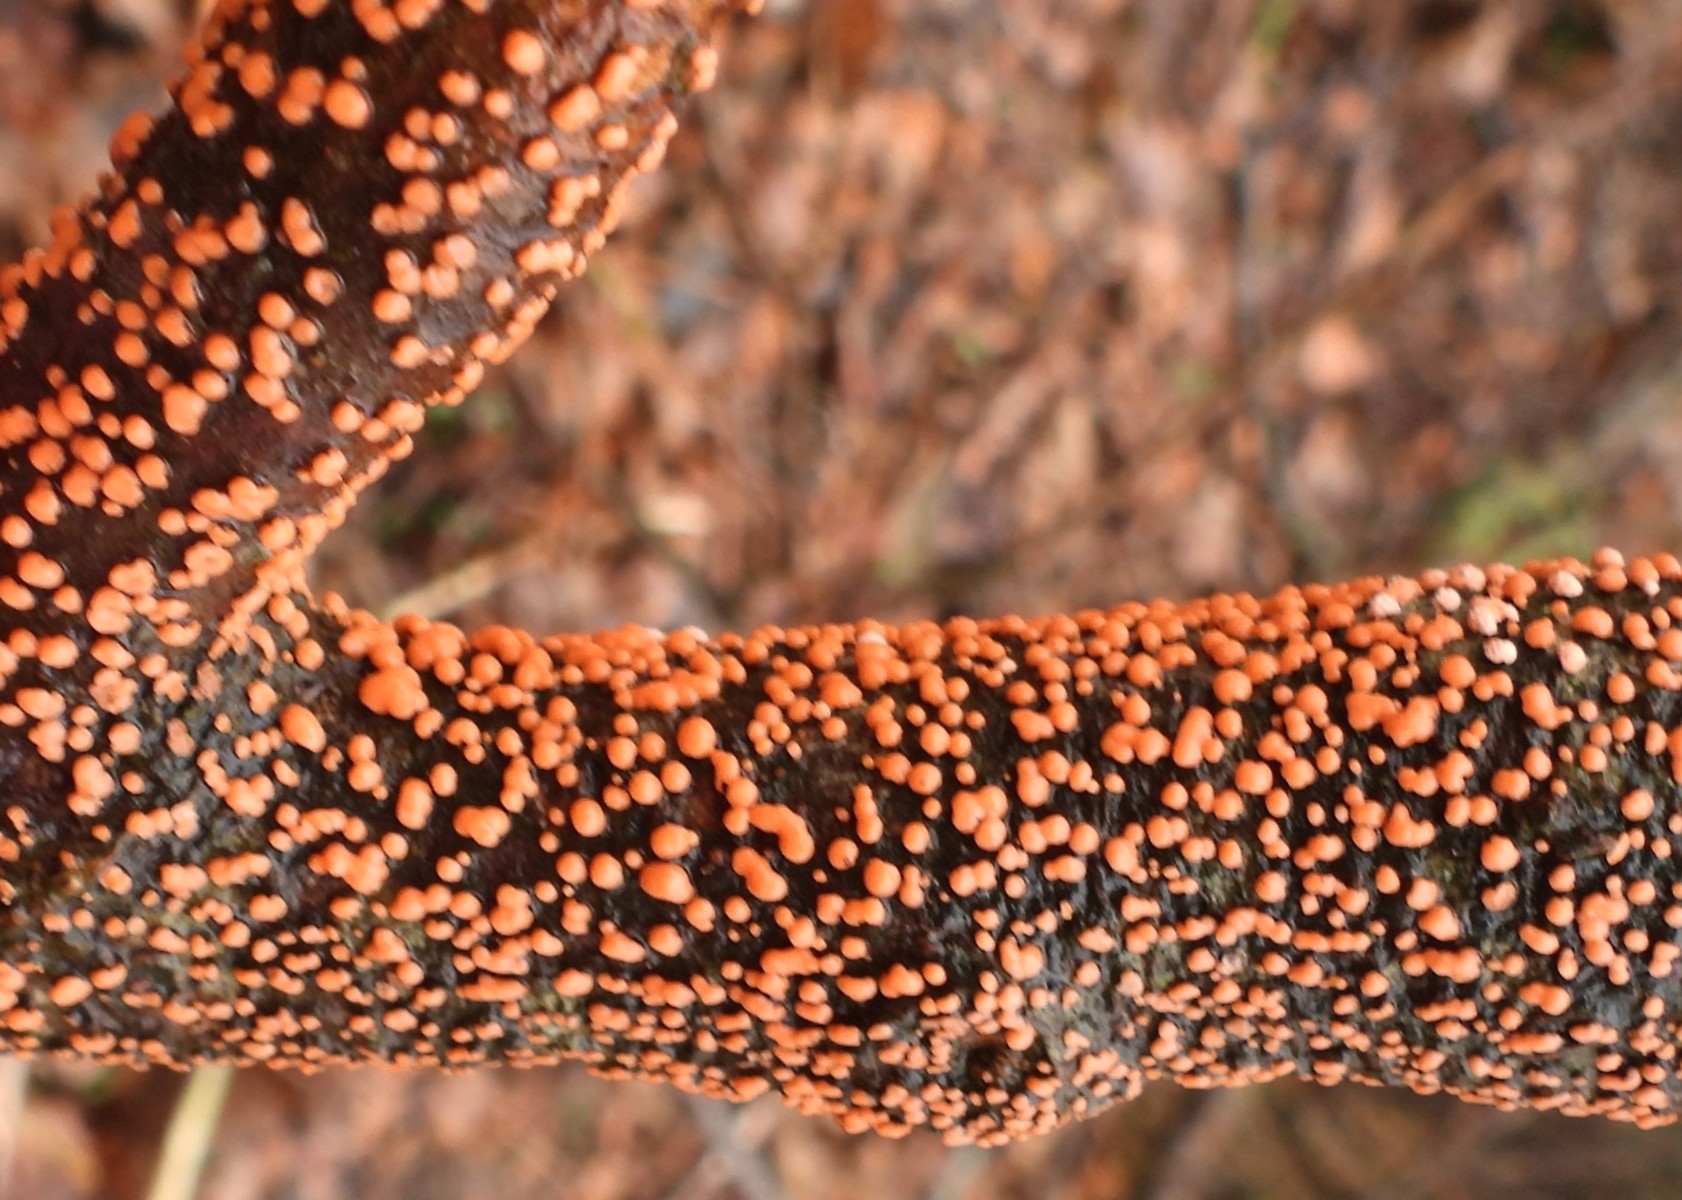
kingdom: Fungi
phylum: Ascomycota
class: Sordariomycetes
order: Hypocreales
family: Nectriaceae
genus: Nectria
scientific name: Nectria cinnabarina
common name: almindelig cinnobersvamp
